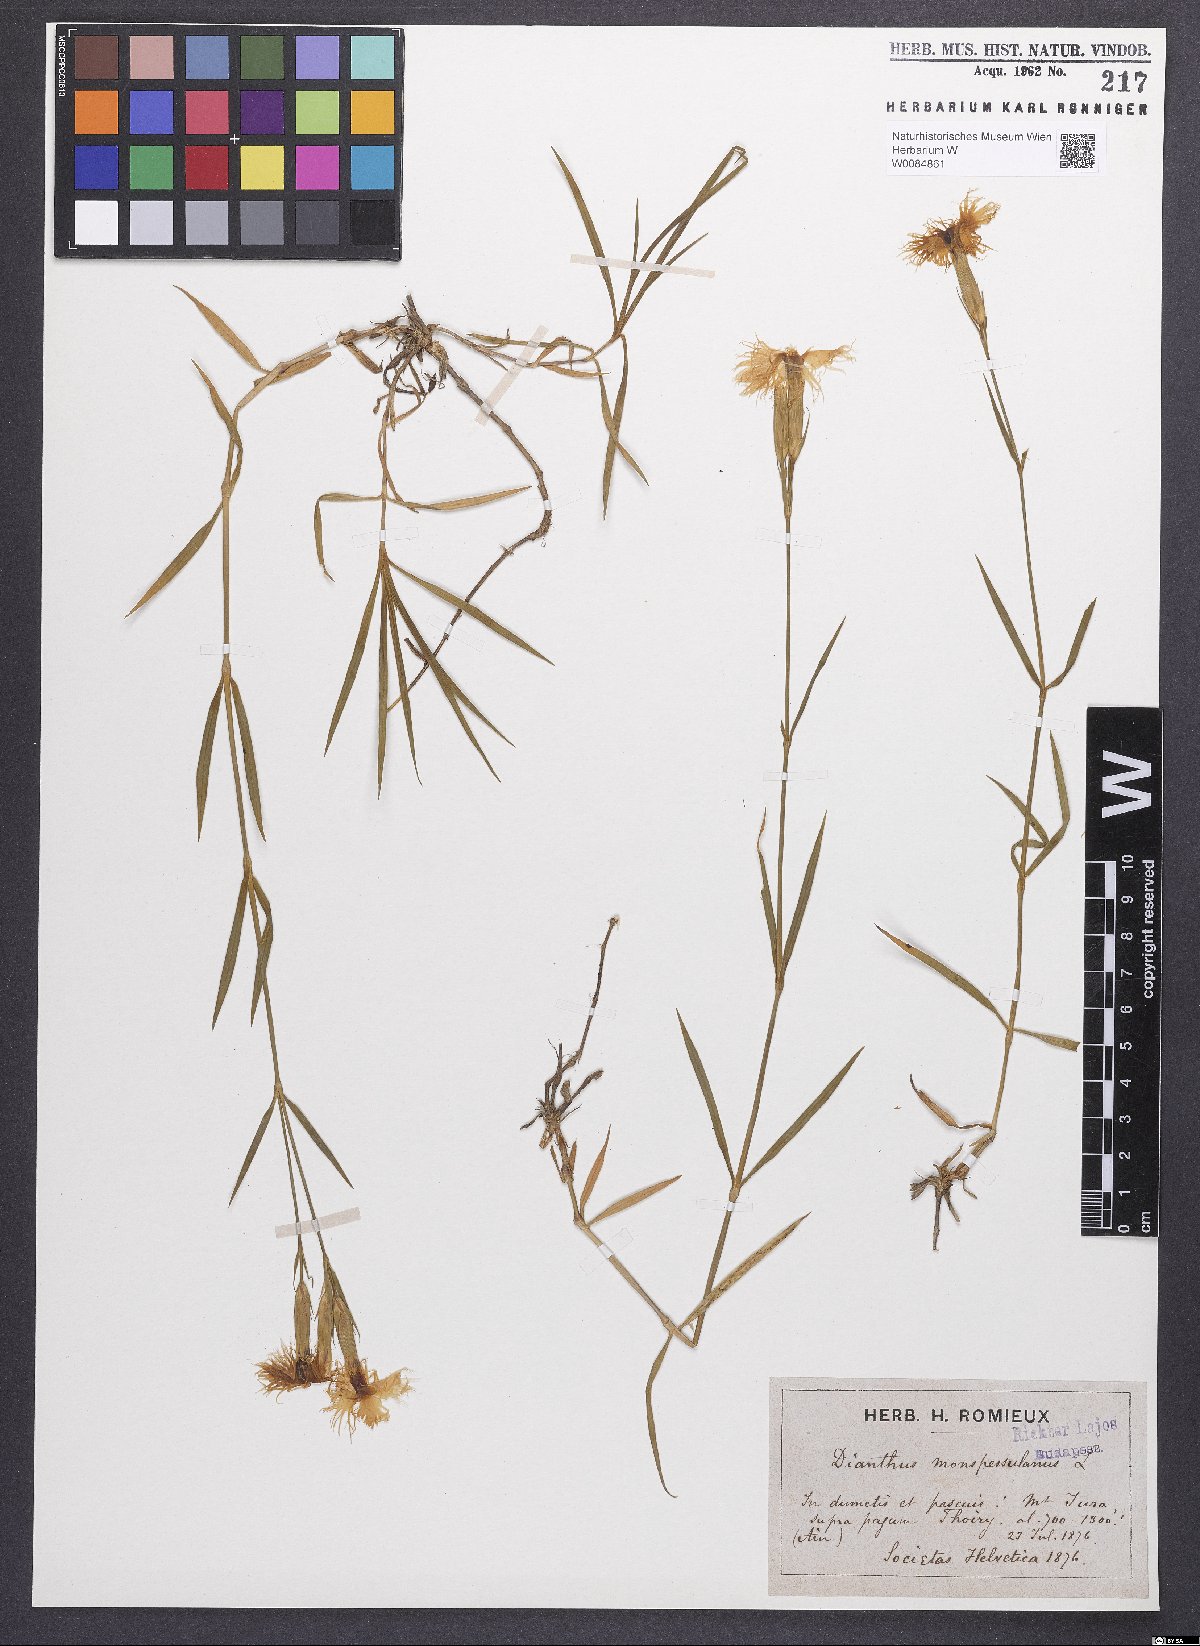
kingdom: Plantae
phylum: Tracheophyta
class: Magnoliopsida
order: Caryophyllales
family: Caryophyllaceae
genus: Dianthus
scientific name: Dianthus hyssopifolius
